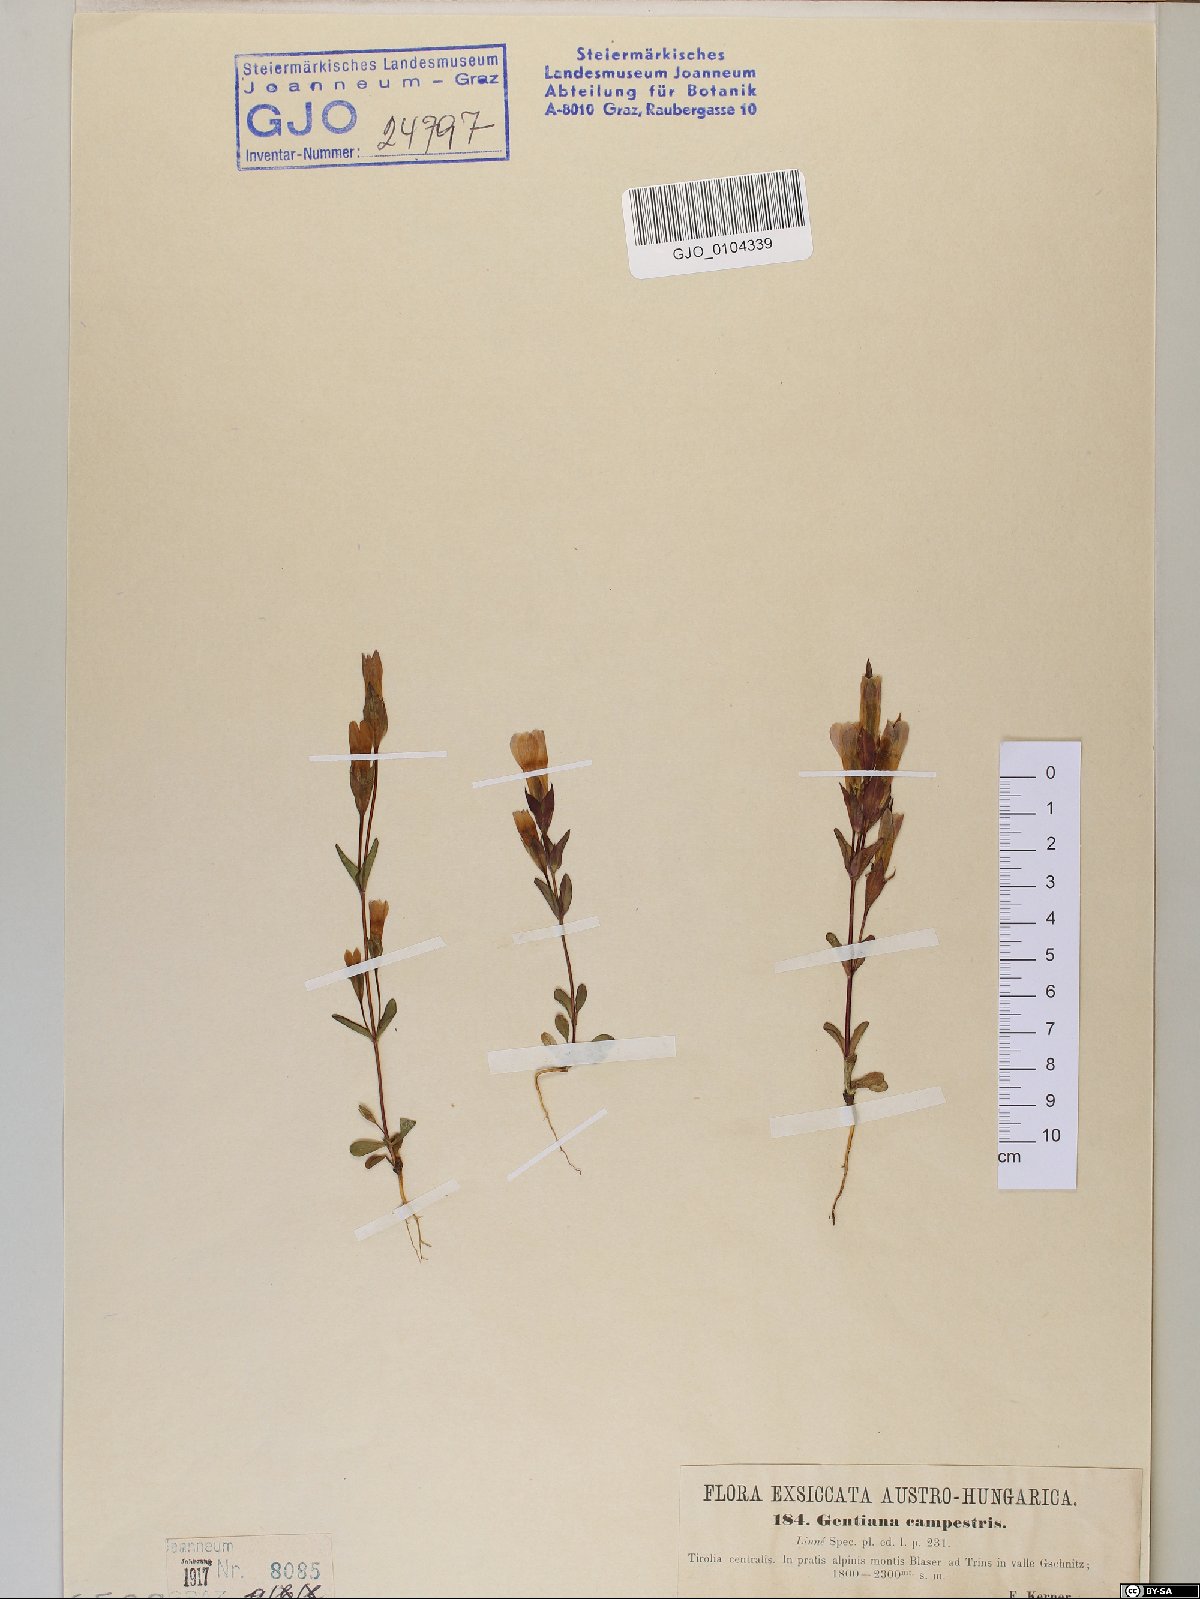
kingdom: Plantae
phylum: Tracheophyta
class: Magnoliopsida
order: Gentianales
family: Gentianaceae
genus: Gentianella
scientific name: Gentianella campestris
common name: Field gentian
